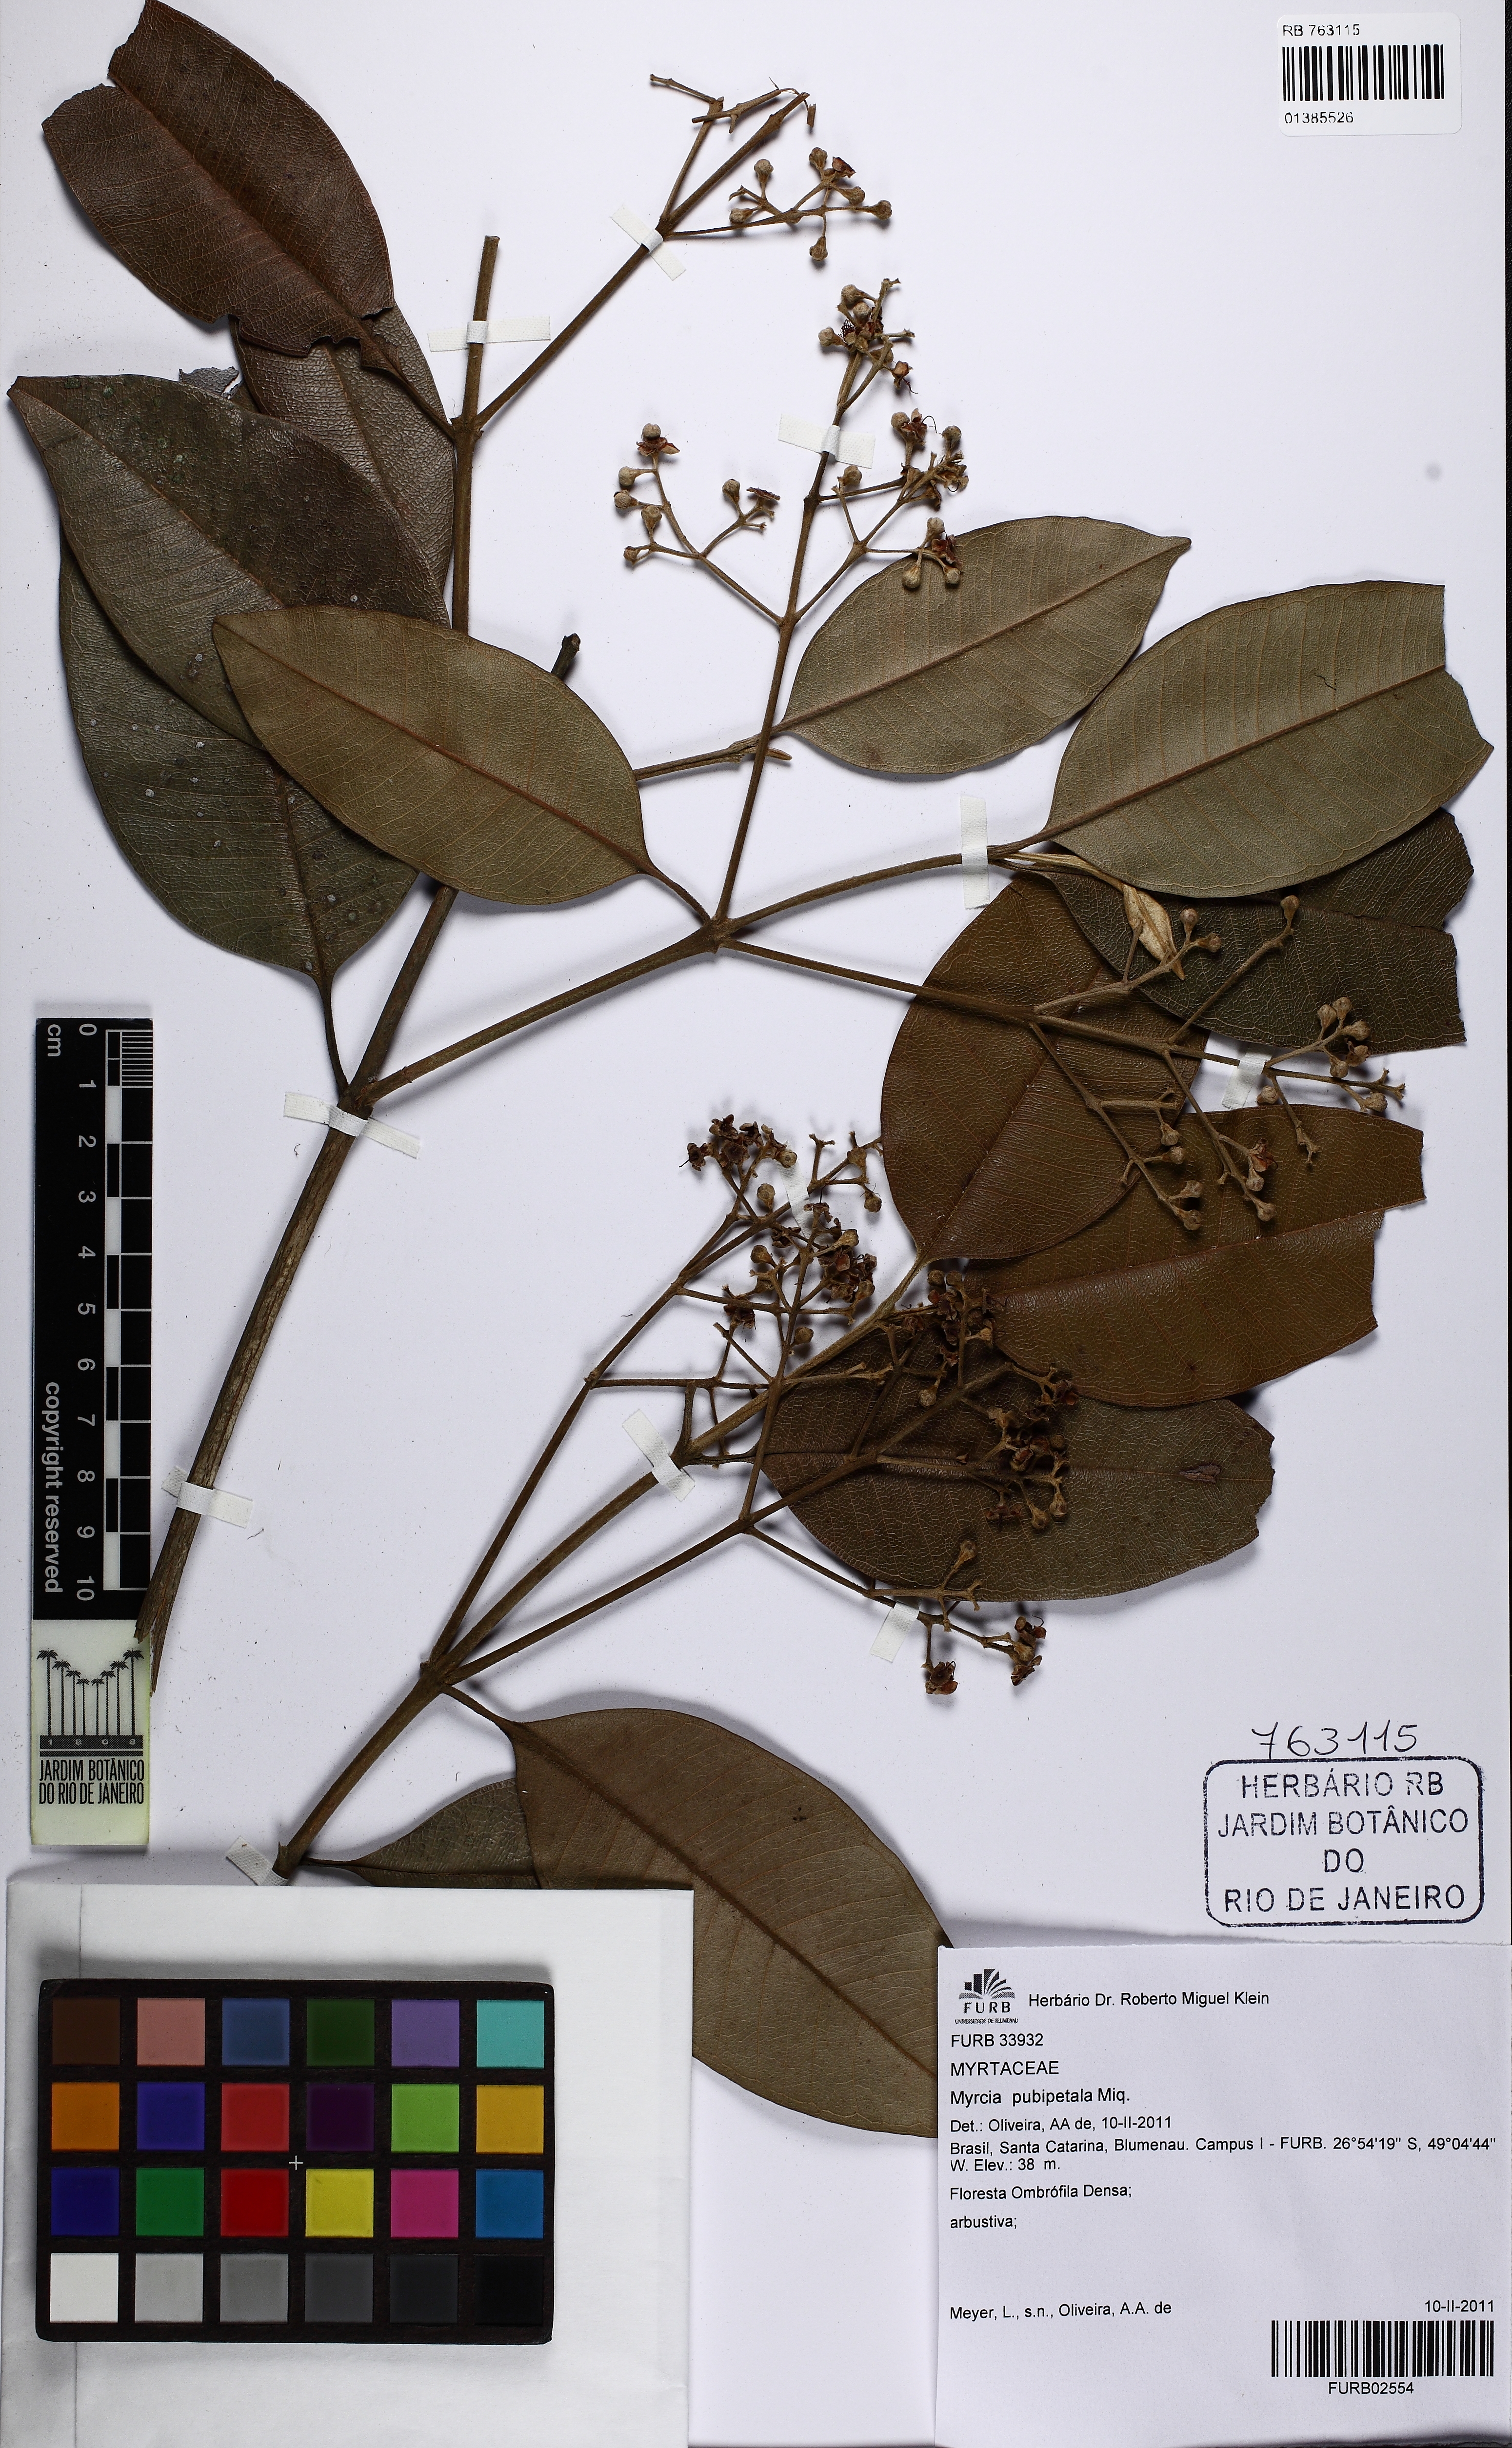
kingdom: Plantae
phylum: Tracheophyta
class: Magnoliopsida
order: Myrtales
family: Myrtaceae
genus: Myrcia
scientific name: Myrcia pubipetala
